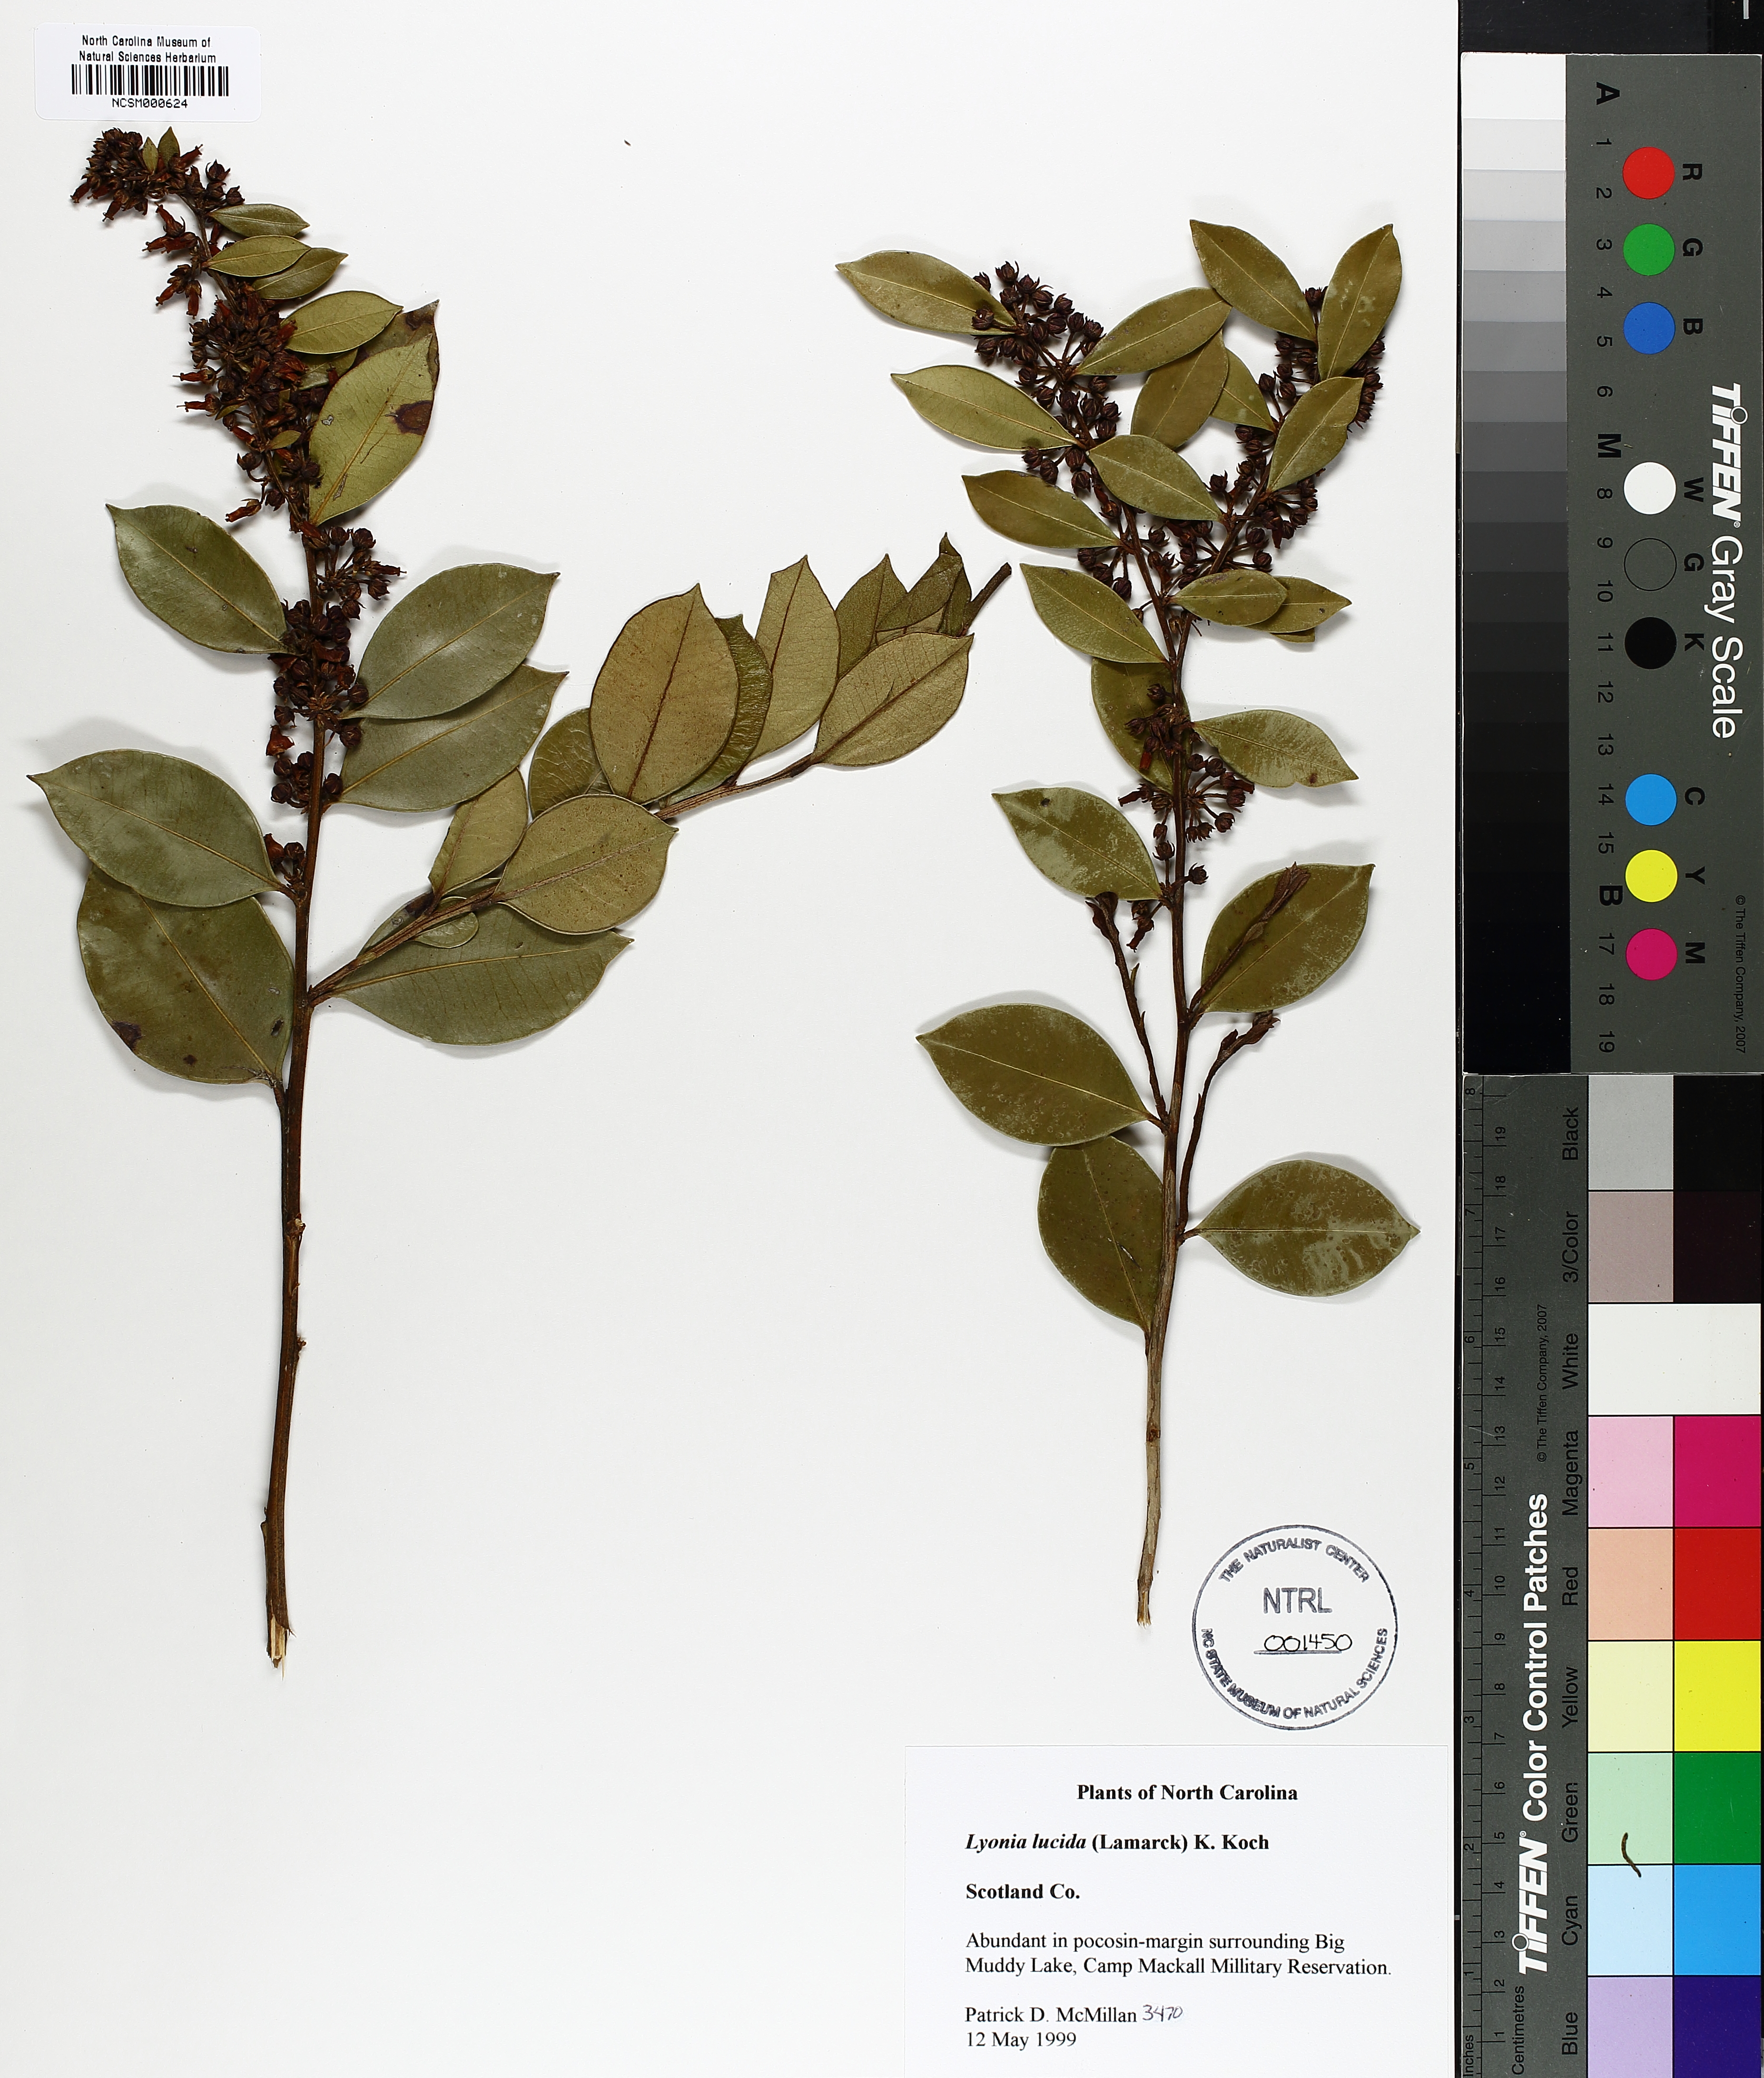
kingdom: Plantae
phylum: Tracheophyta
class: Magnoliopsida
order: Ericales
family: Ericaceae
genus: Lyonia
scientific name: Lyonia lucida
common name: Fetterbush
